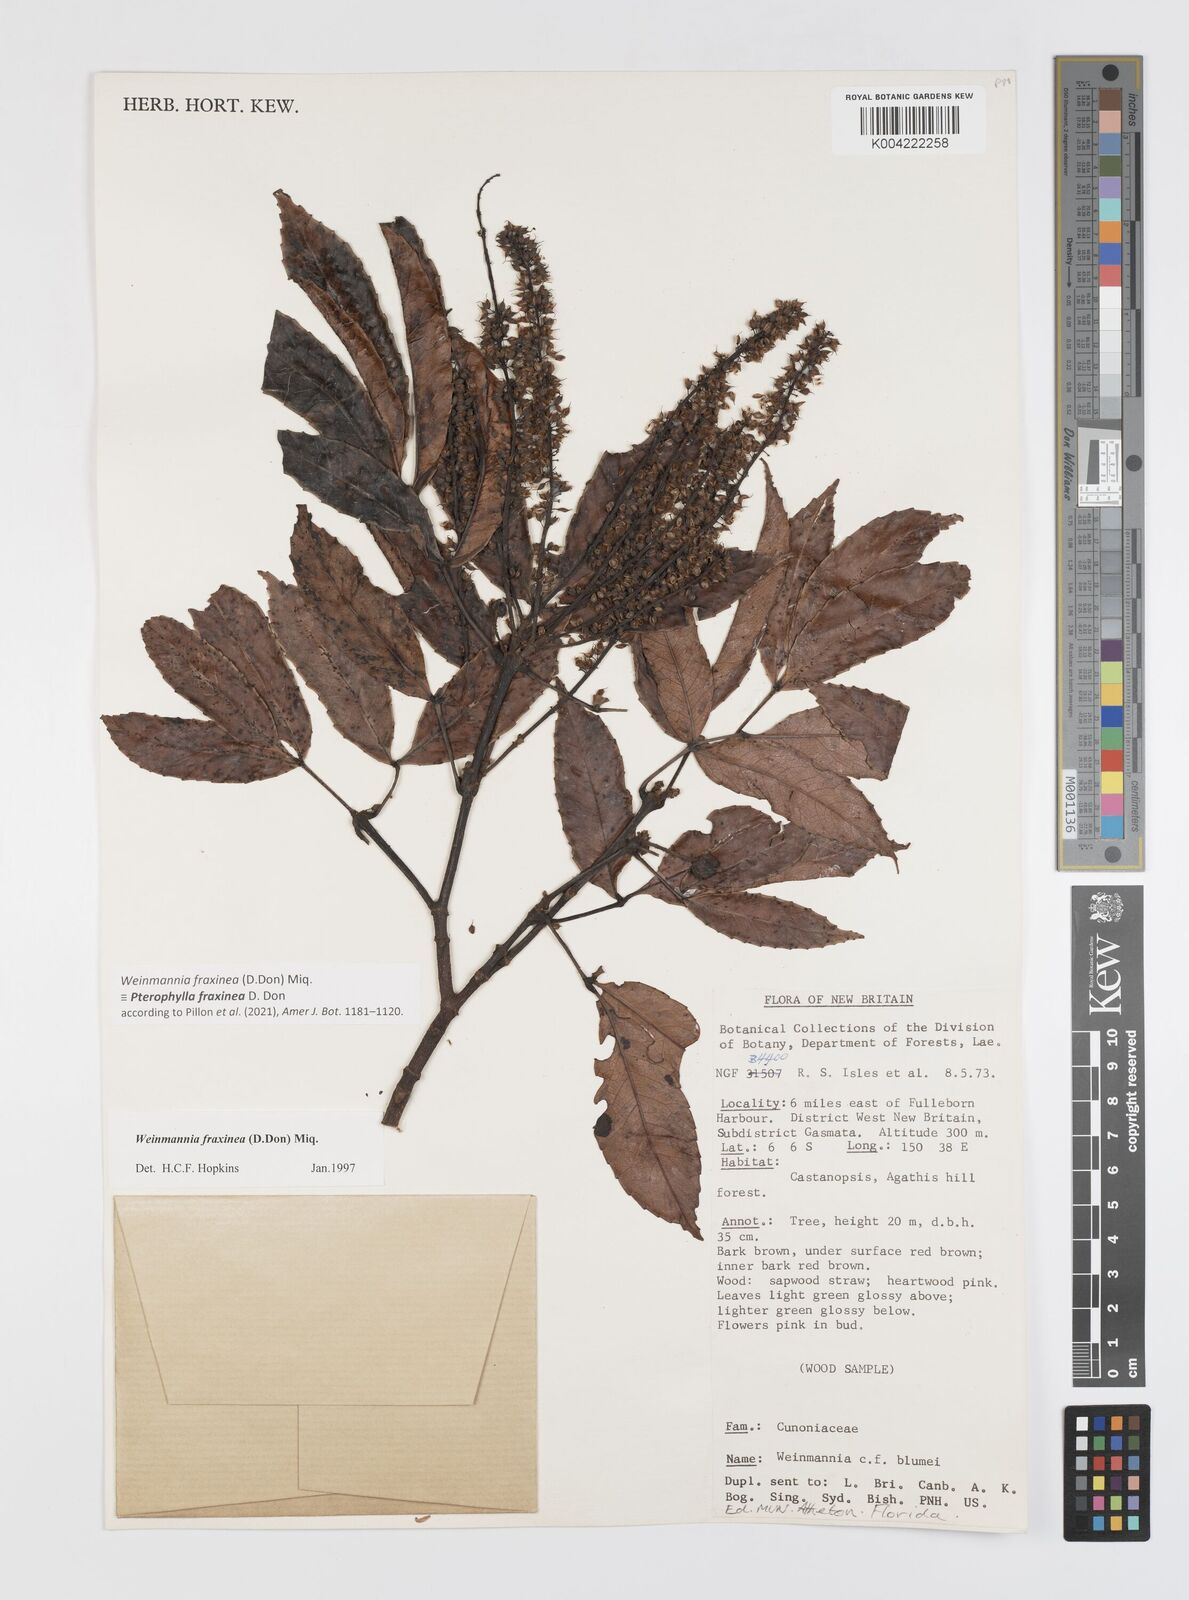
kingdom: Plantae
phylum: Tracheophyta
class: Magnoliopsida
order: Oxalidales
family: Cunoniaceae
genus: Pterophylla
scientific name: Pterophylla fraxinea
